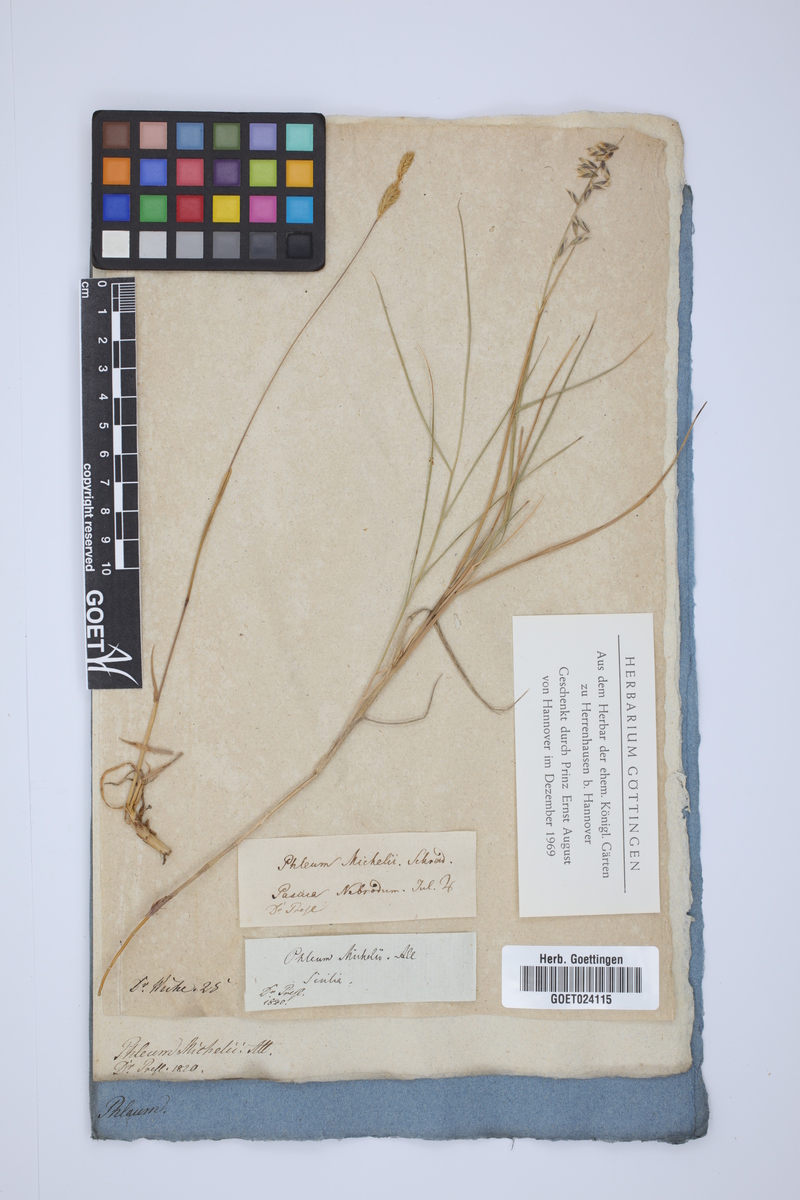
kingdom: Plantae
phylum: Tracheophyta
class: Liliopsida
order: Poales
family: Poaceae
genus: Phleum
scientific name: Phleum hirsutum
